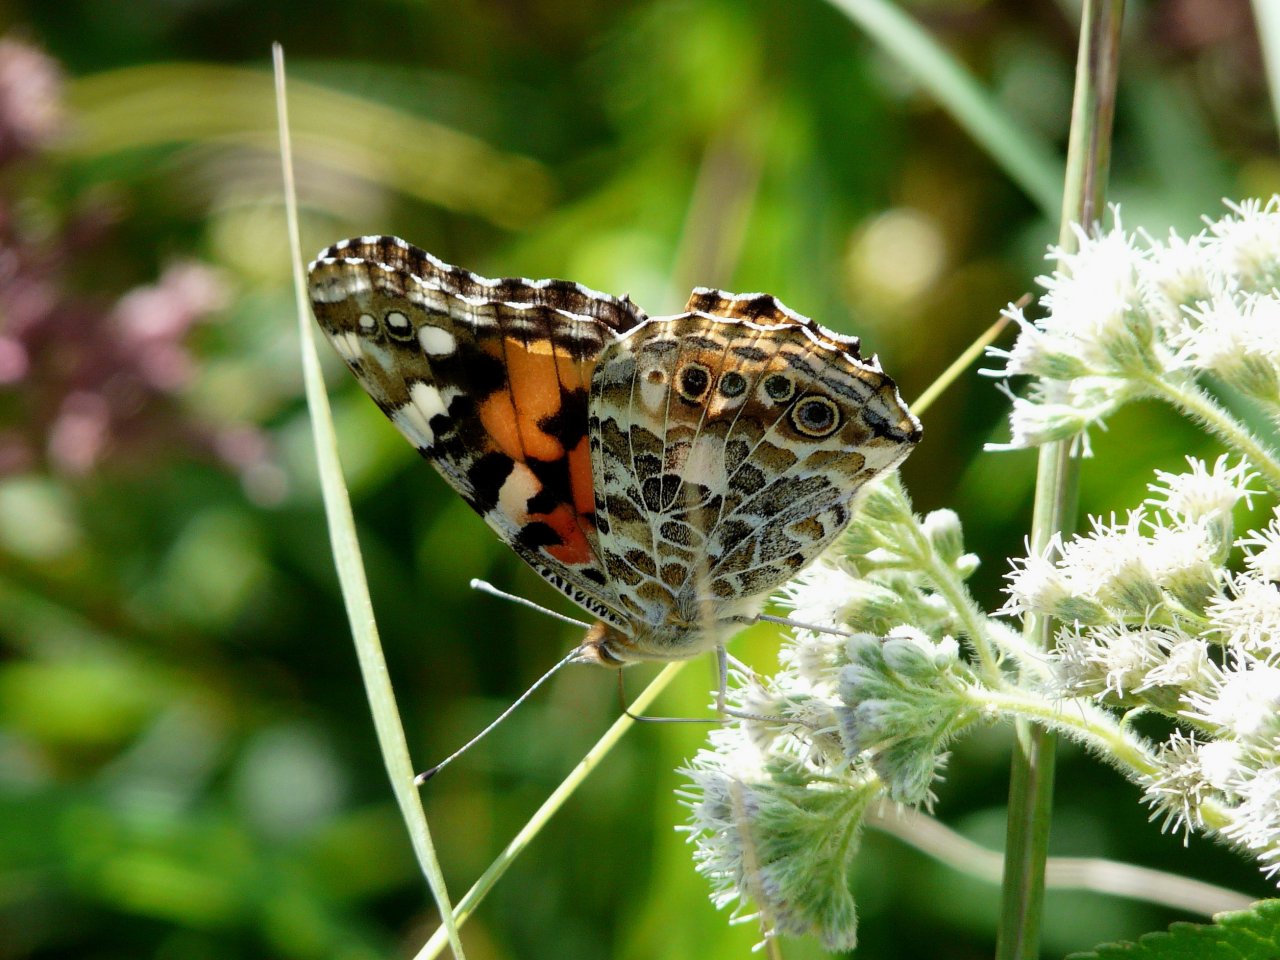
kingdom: Animalia
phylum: Arthropoda
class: Insecta
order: Lepidoptera
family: Nymphalidae
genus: Vanessa
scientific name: Vanessa cardui
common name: Painted Lady
